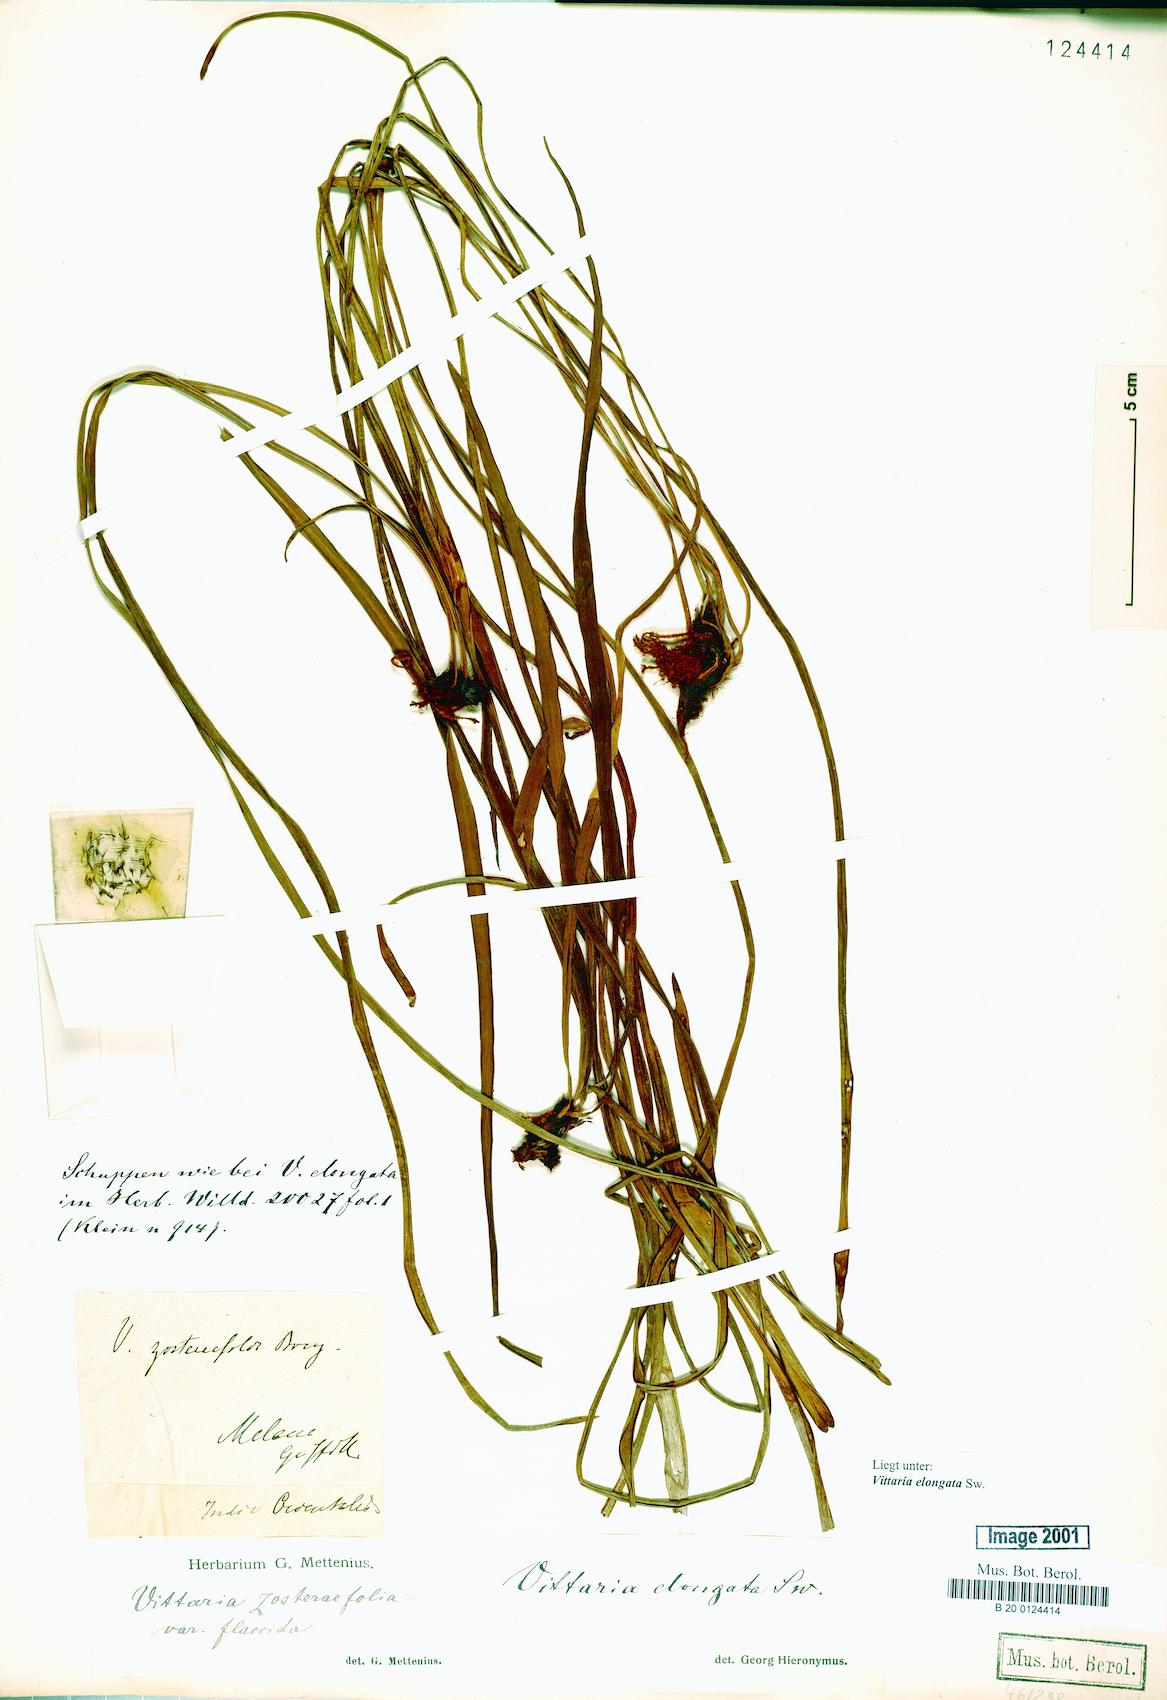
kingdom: Plantae
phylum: Tracheophyta
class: Polypodiopsida
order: Polypodiales
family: Pteridaceae
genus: Haplopteris
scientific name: Haplopteris elongata
